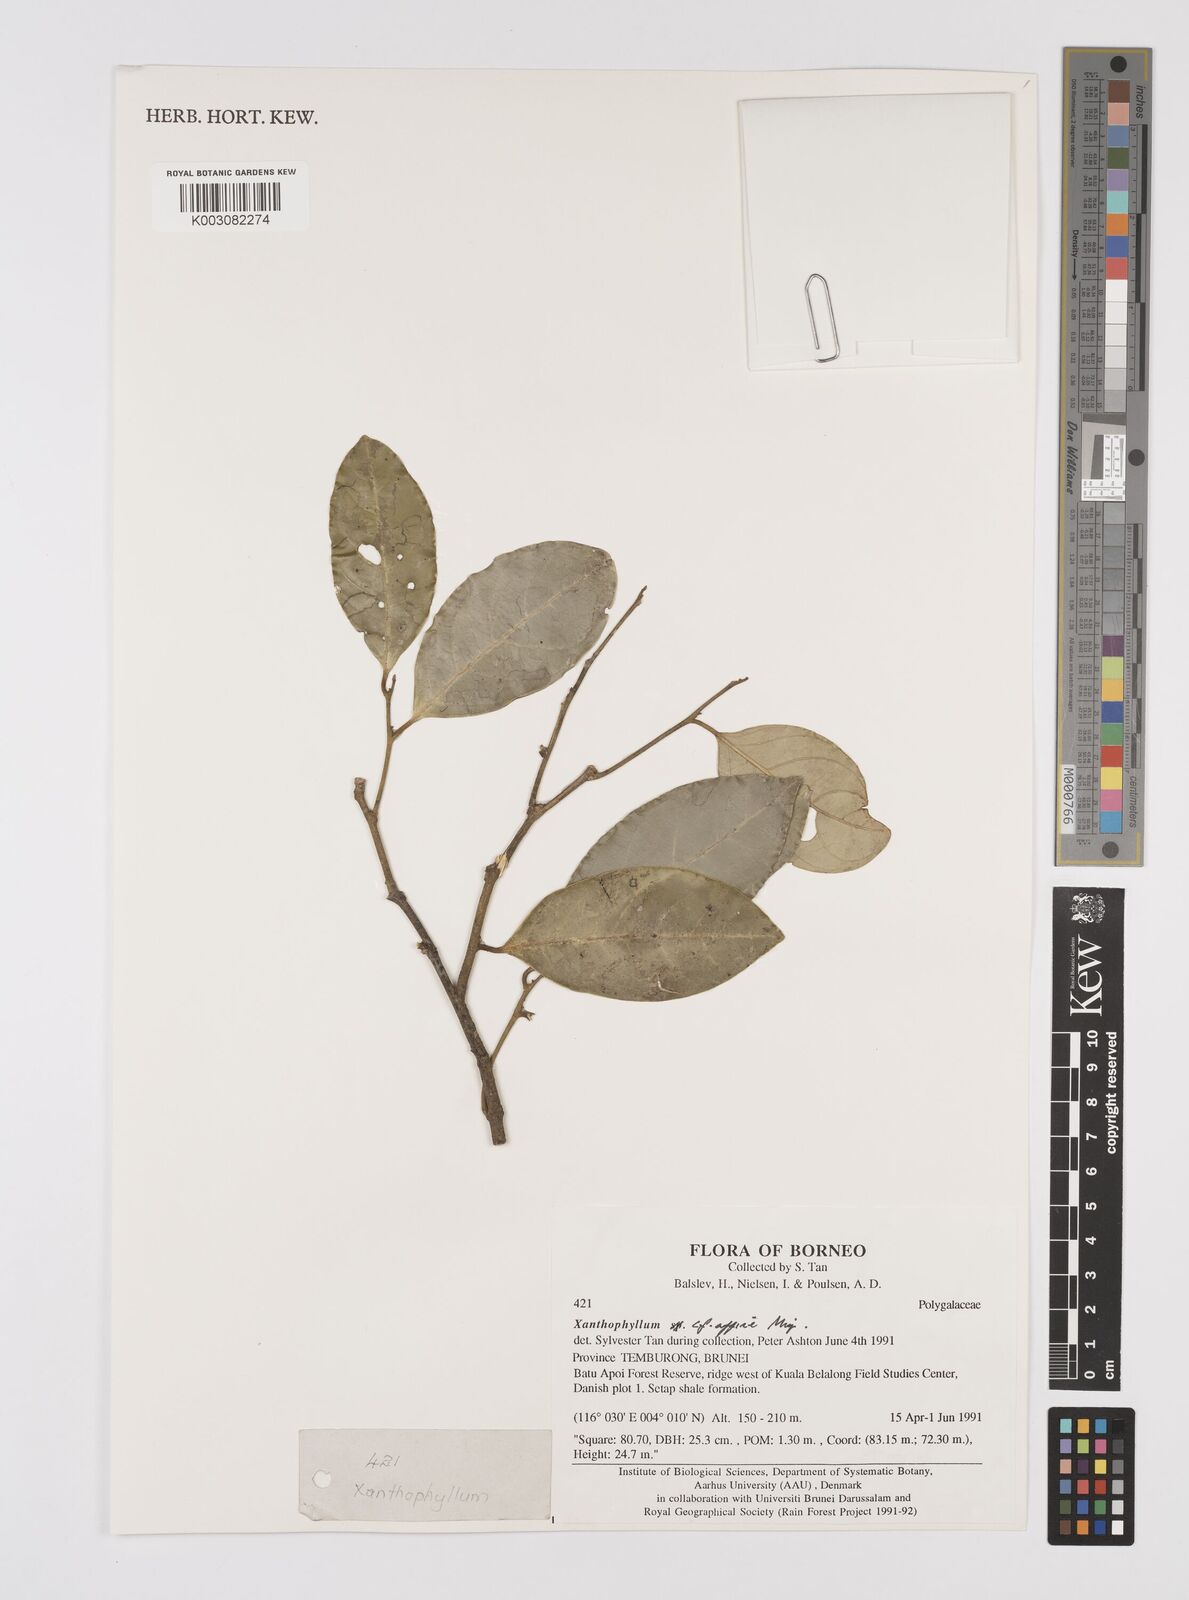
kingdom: Plantae
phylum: Tracheophyta
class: Magnoliopsida
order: Fabales
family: Polygalaceae
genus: Xanthophyllum
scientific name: Xanthophyllum flavescens
